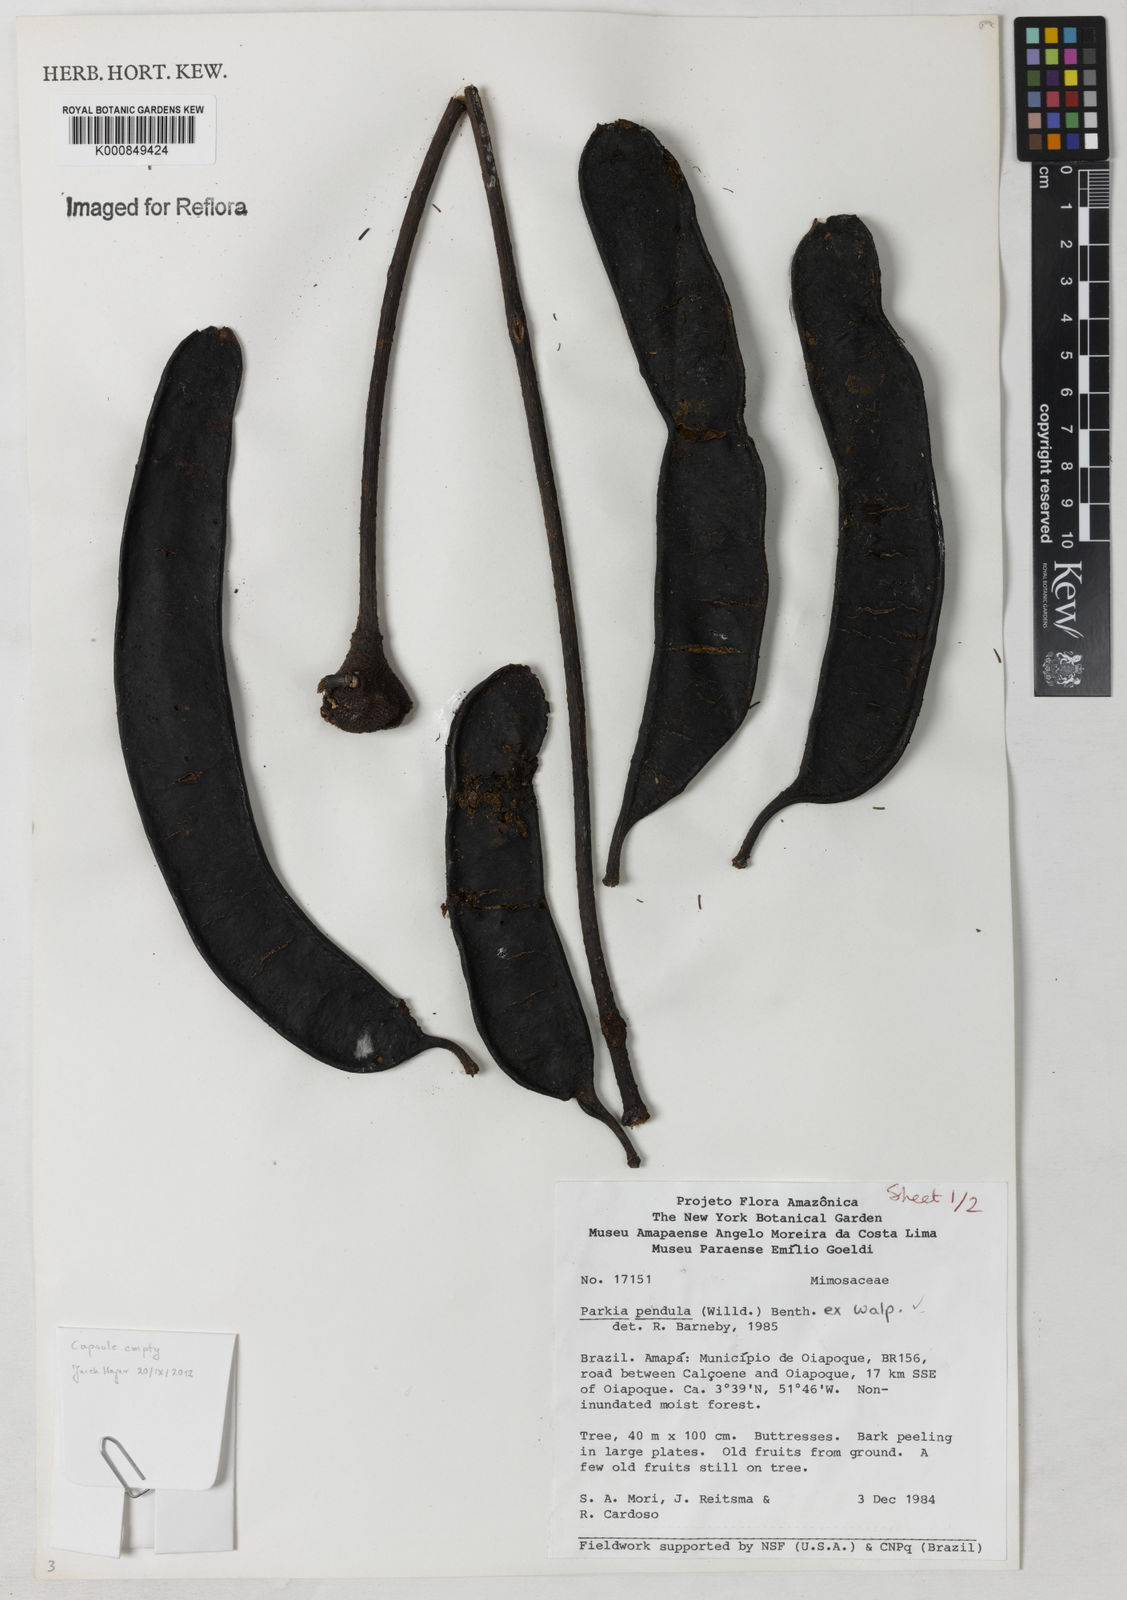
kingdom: Plantae
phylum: Tracheophyta
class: Magnoliopsida
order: Fabales
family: Fabaceae
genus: Parkia
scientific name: Parkia pendula
